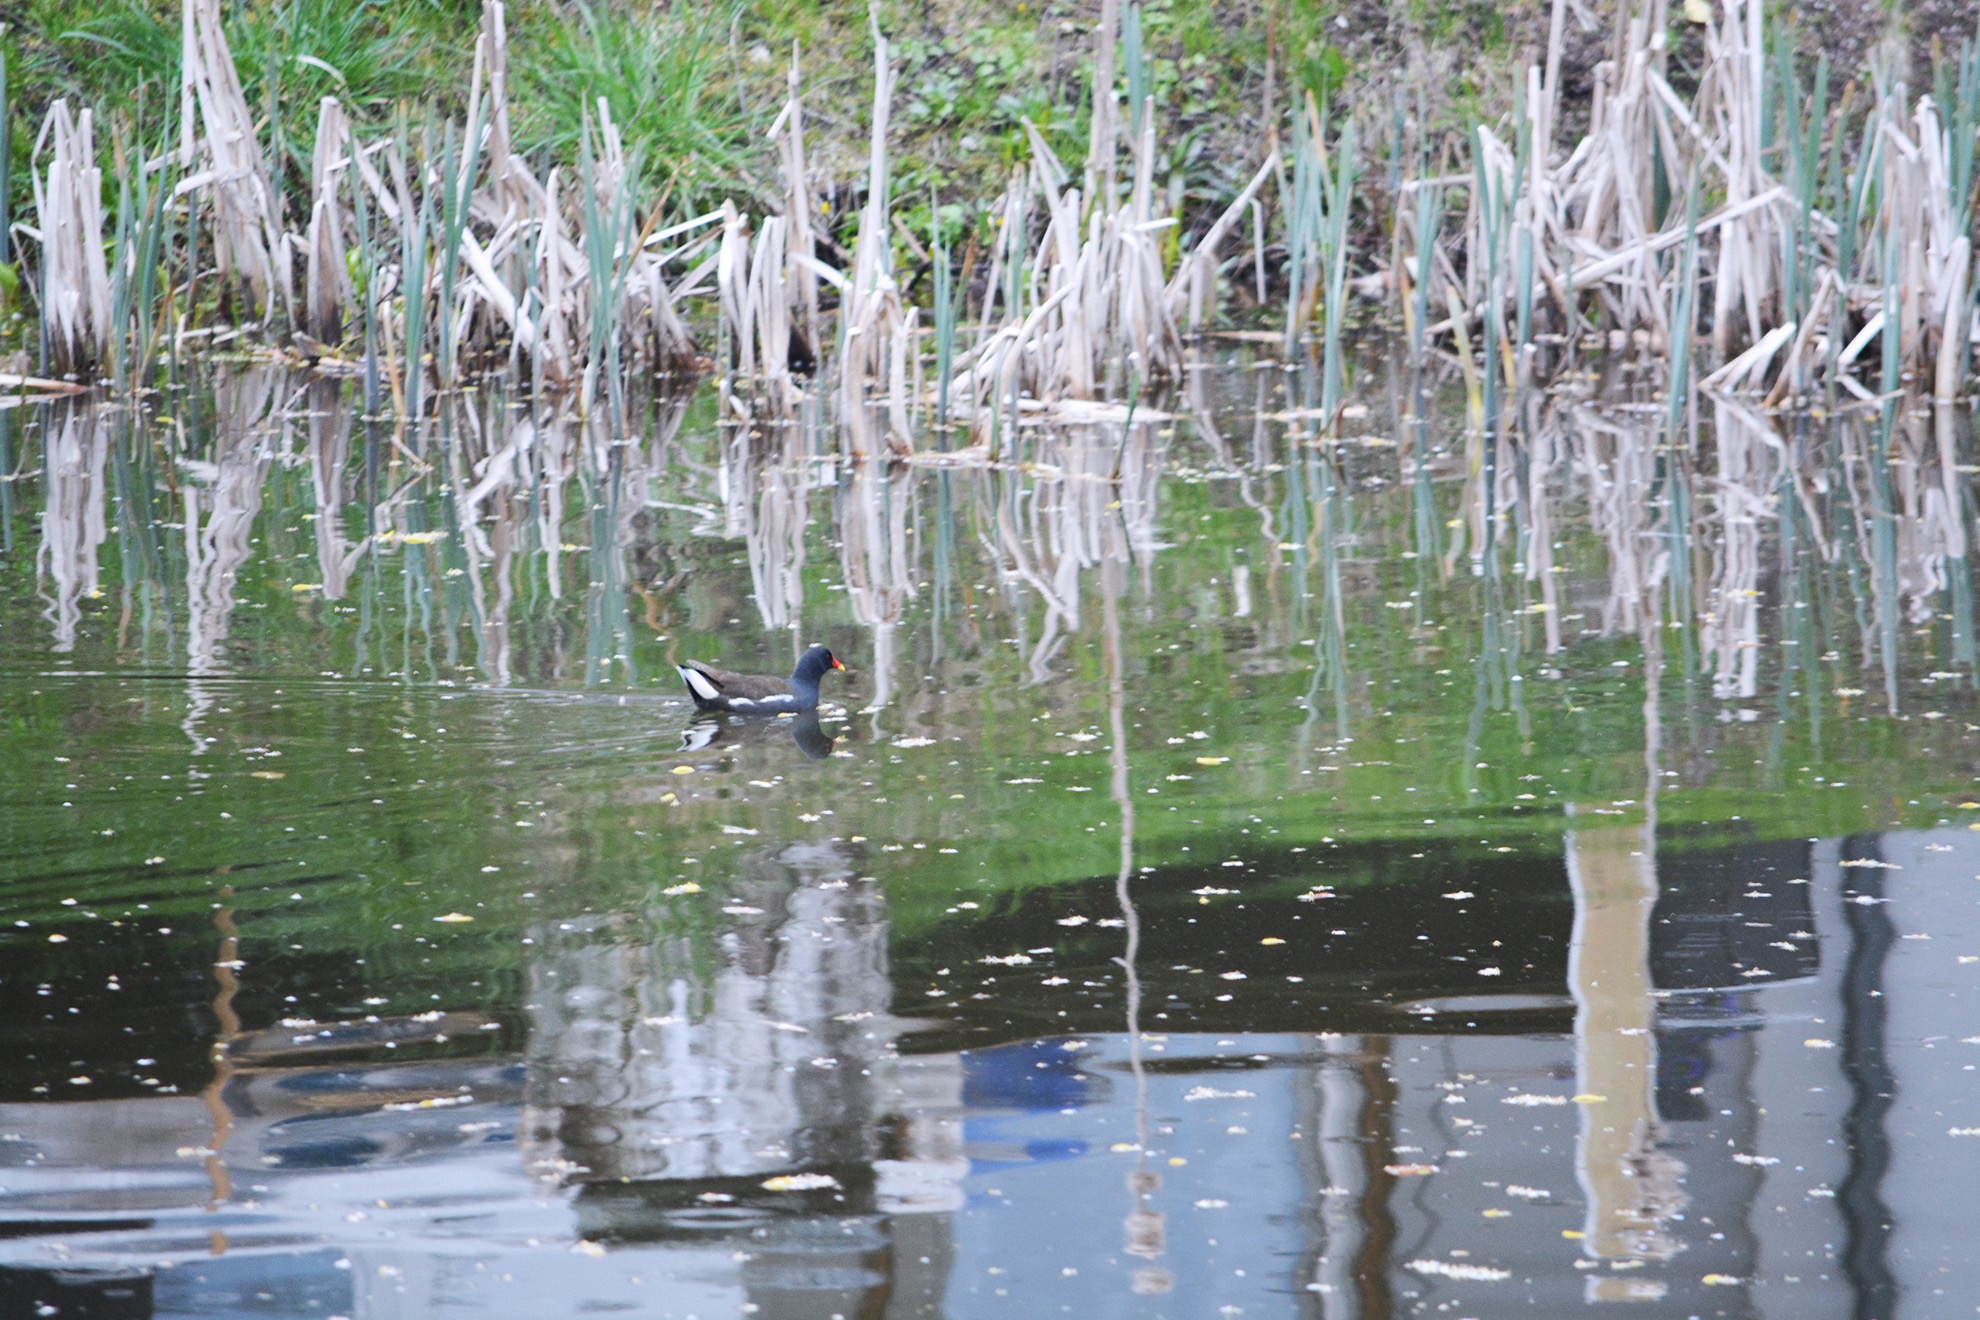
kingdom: Animalia
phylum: Chordata
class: Aves
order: Gruiformes
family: Rallidae
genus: Gallinula
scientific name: Gallinula chloropus
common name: Grønbenet rørhøne
